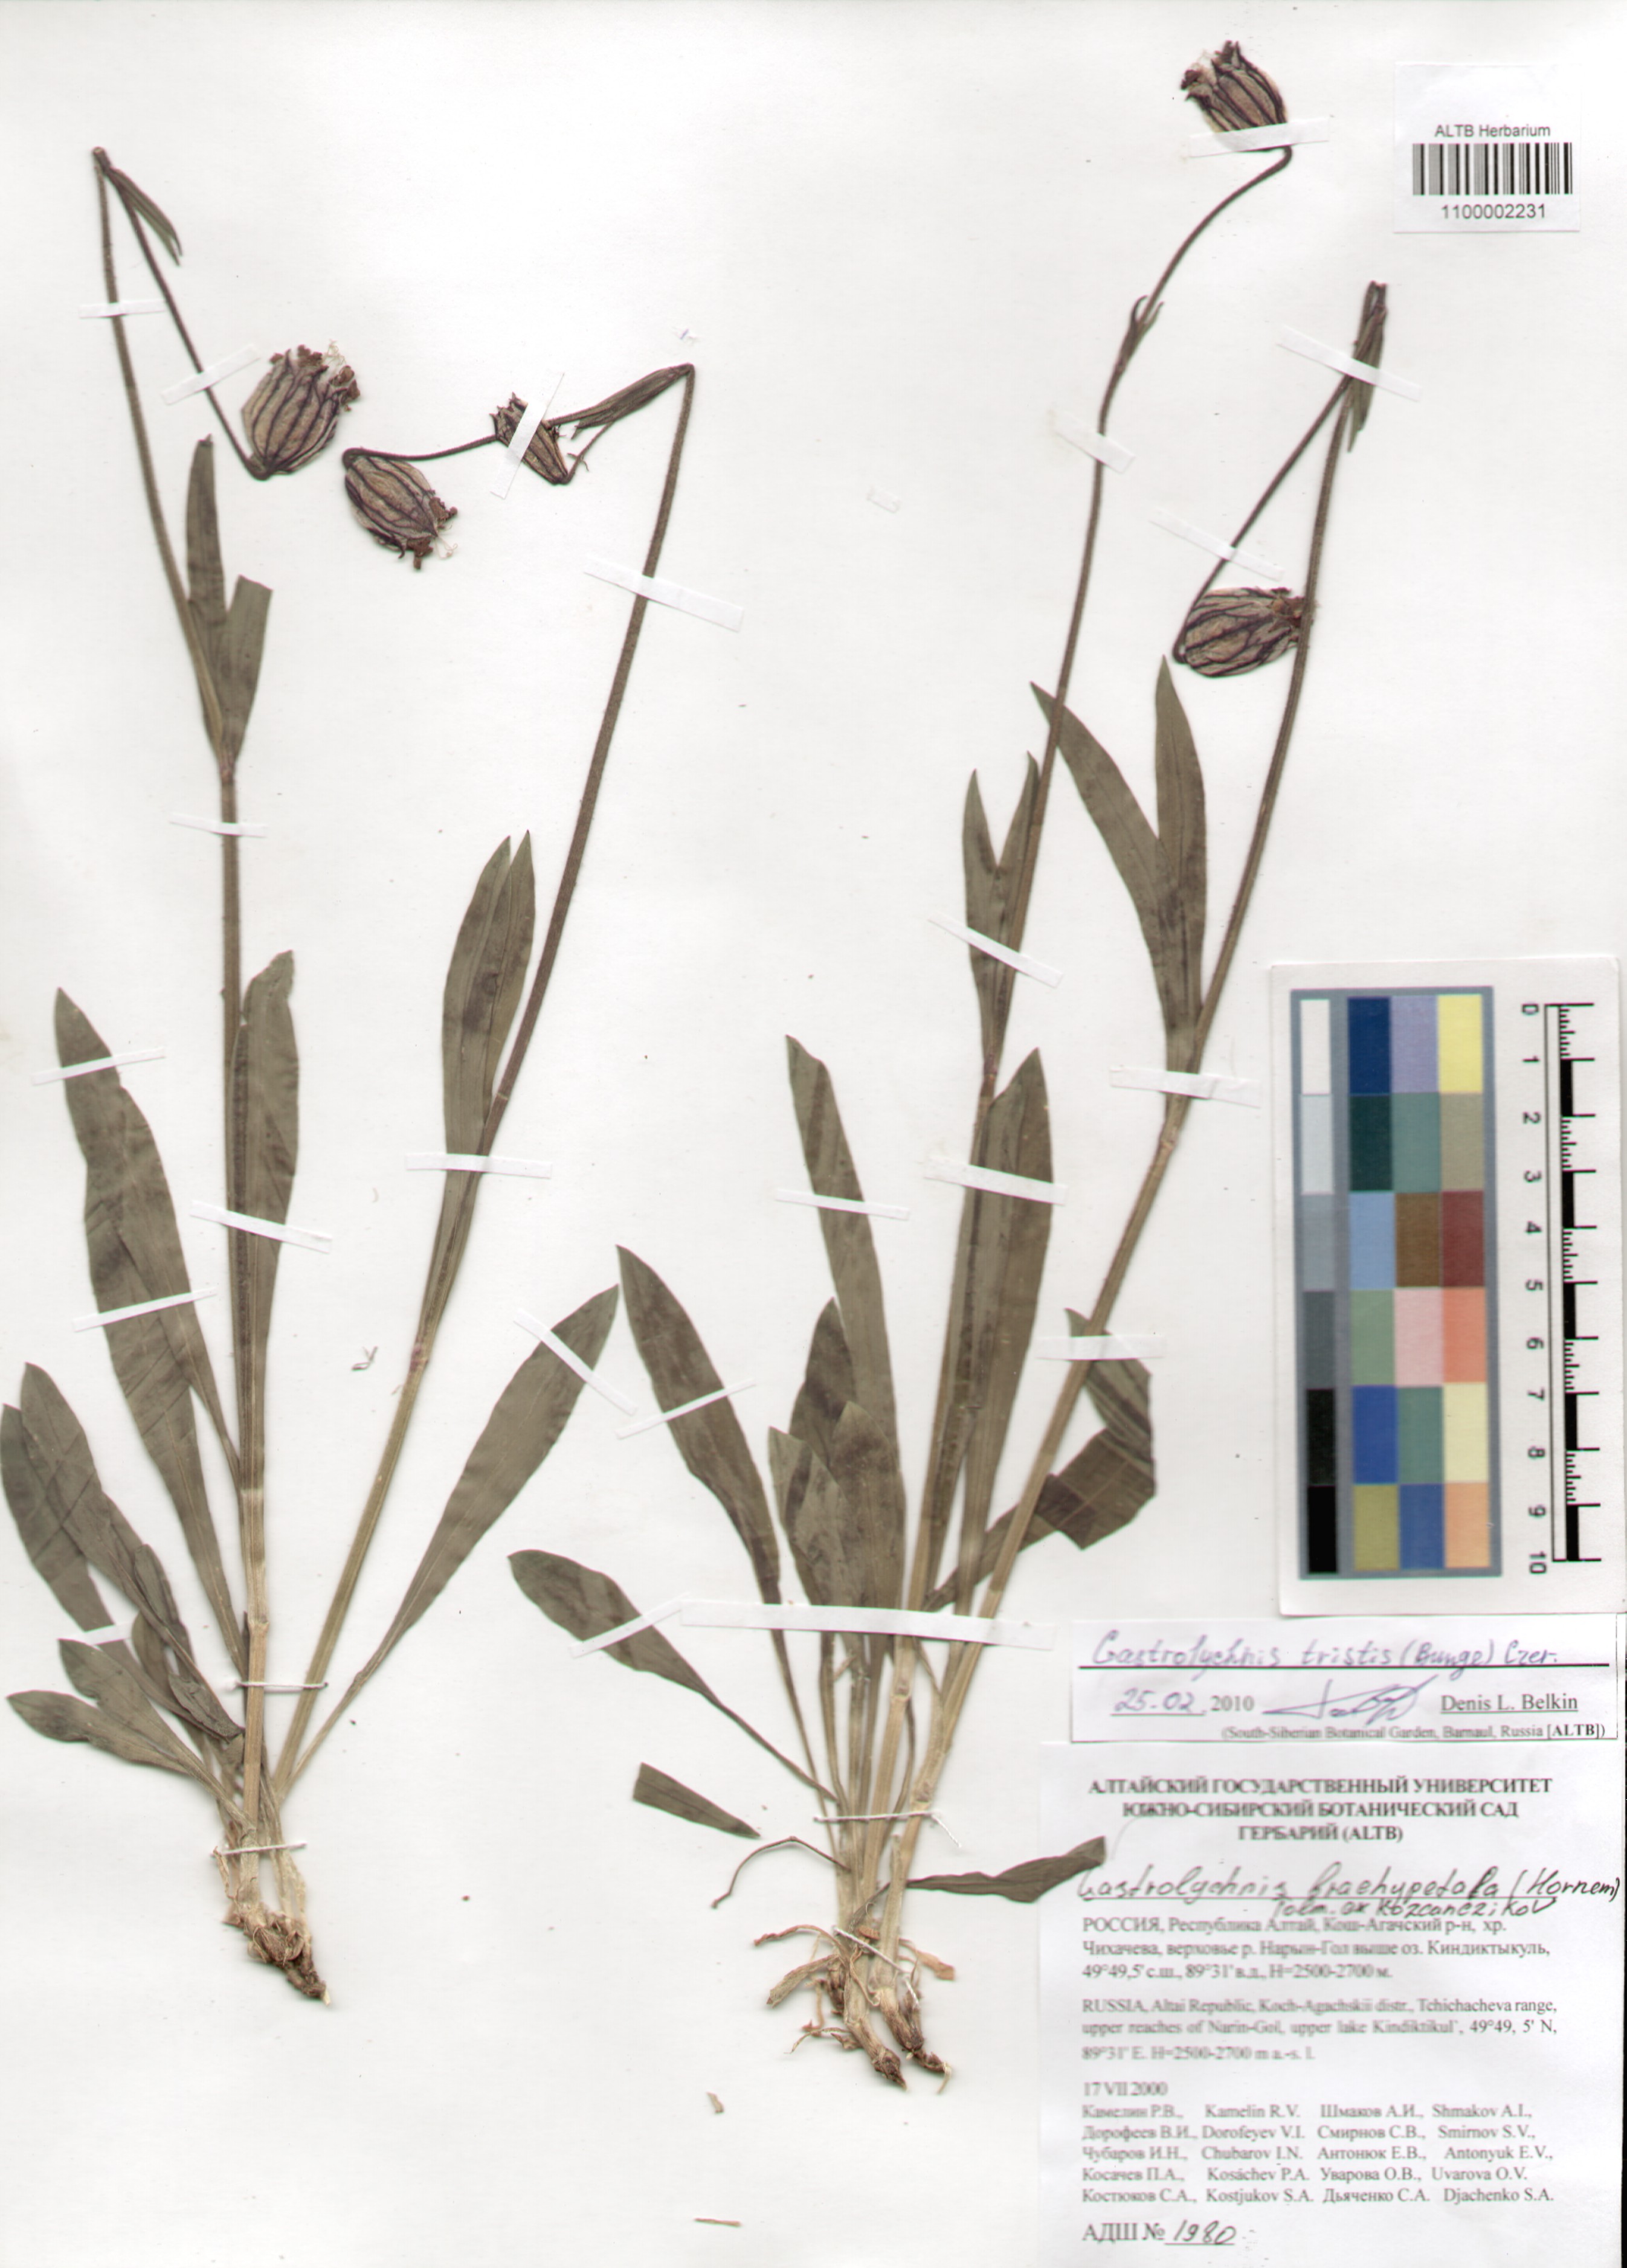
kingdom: Plantae
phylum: Tracheophyta
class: Magnoliopsida
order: Caryophyllales
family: Caryophyllaceae
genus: Silene
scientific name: Silene bungei
